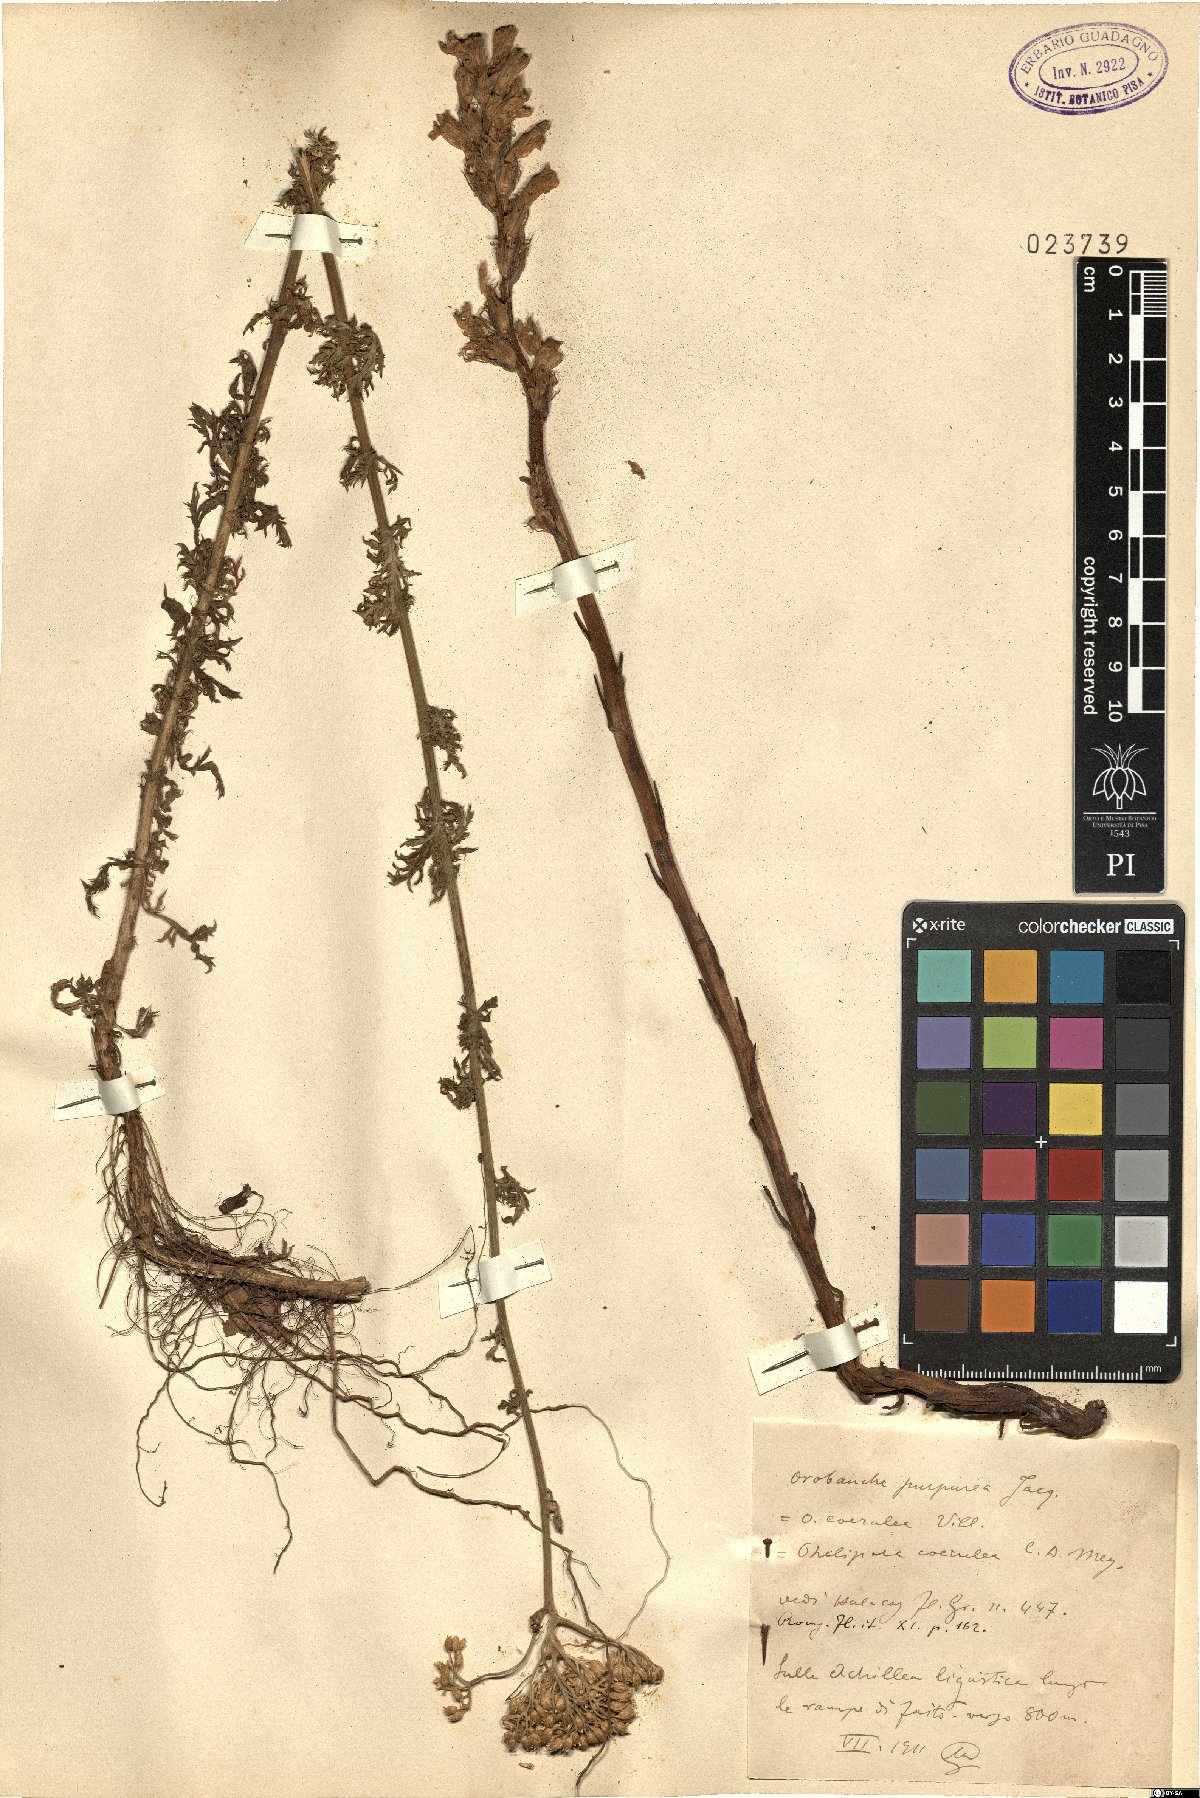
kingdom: Plantae
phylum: Tracheophyta
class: Magnoliopsida
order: Lamiales
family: Orobanchaceae
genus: Phelipanche
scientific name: Phelipanche purpurea
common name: Purple broomrape
